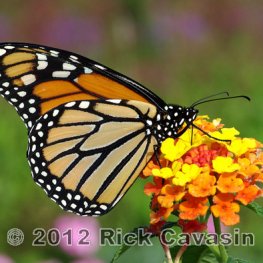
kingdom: Animalia
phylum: Arthropoda
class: Insecta
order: Lepidoptera
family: Nymphalidae
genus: Danaus
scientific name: Danaus plexippus
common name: Monarch
